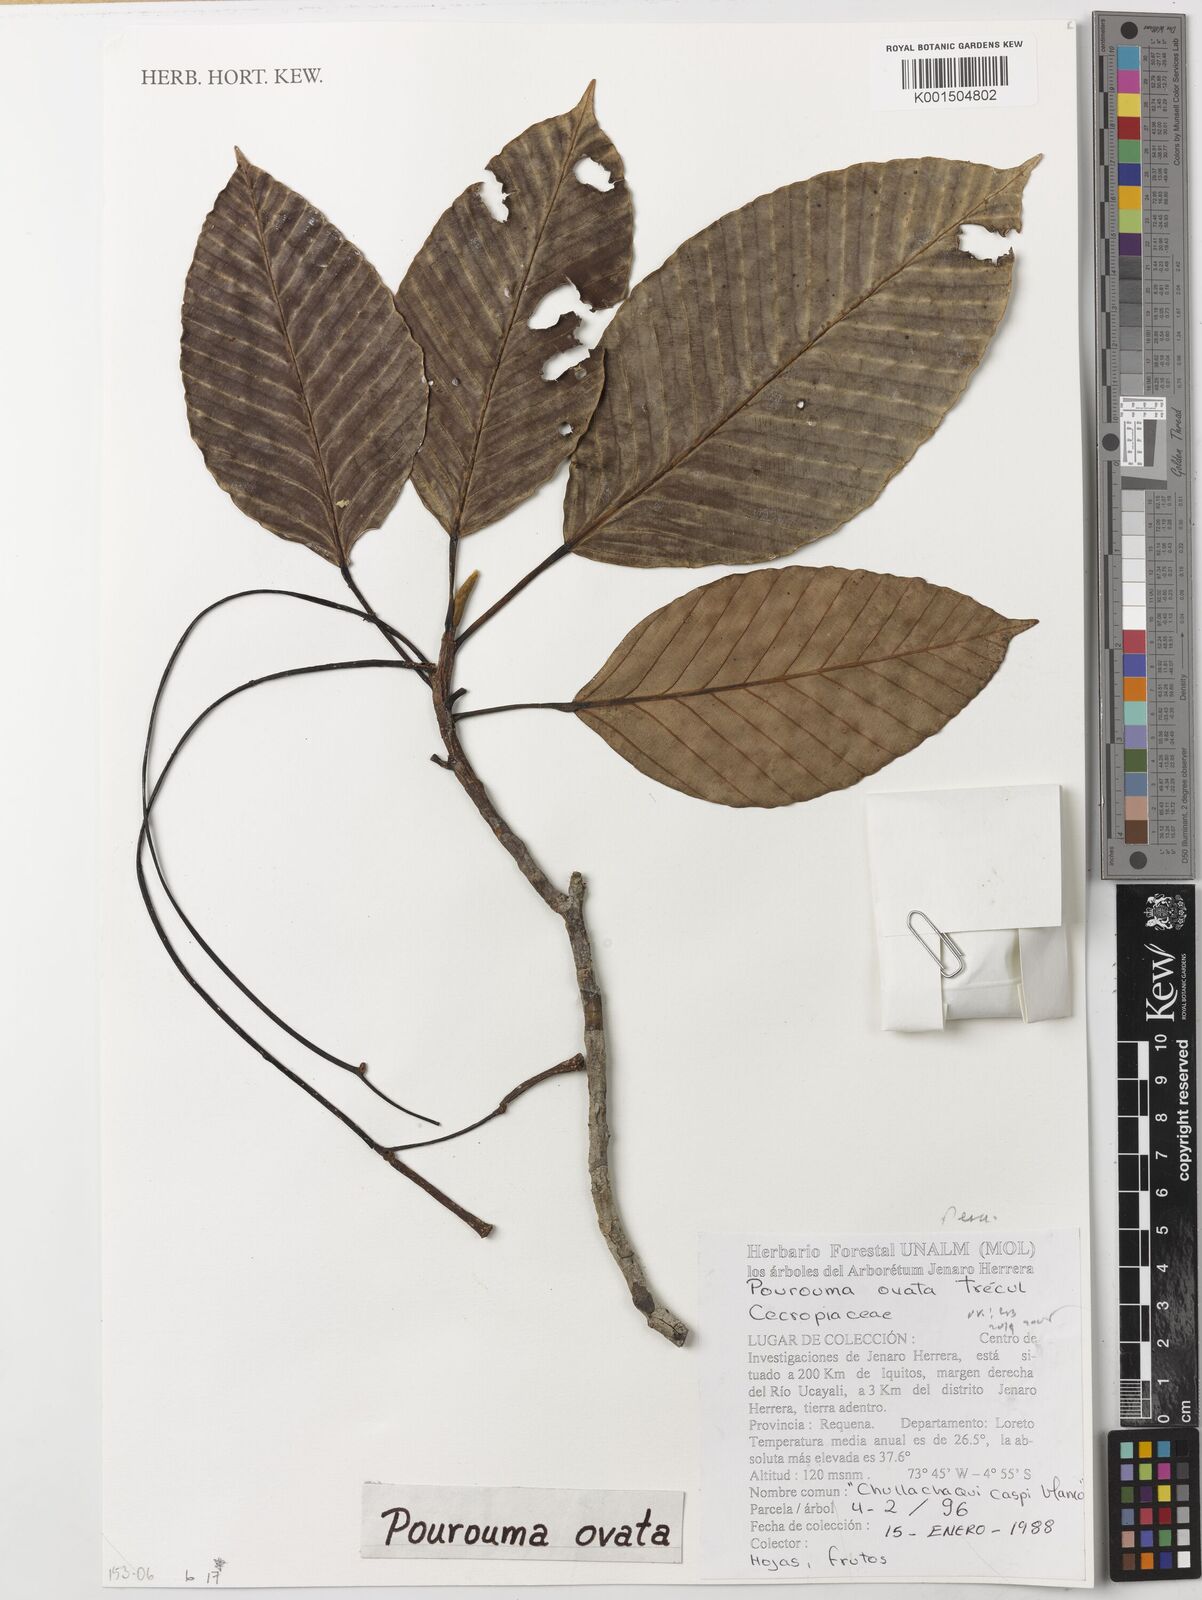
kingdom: Plantae
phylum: Tracheophyta
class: Magnoliopsida
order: Rosales
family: Urticaceae
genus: Pourouma
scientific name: Pourouma ovata
